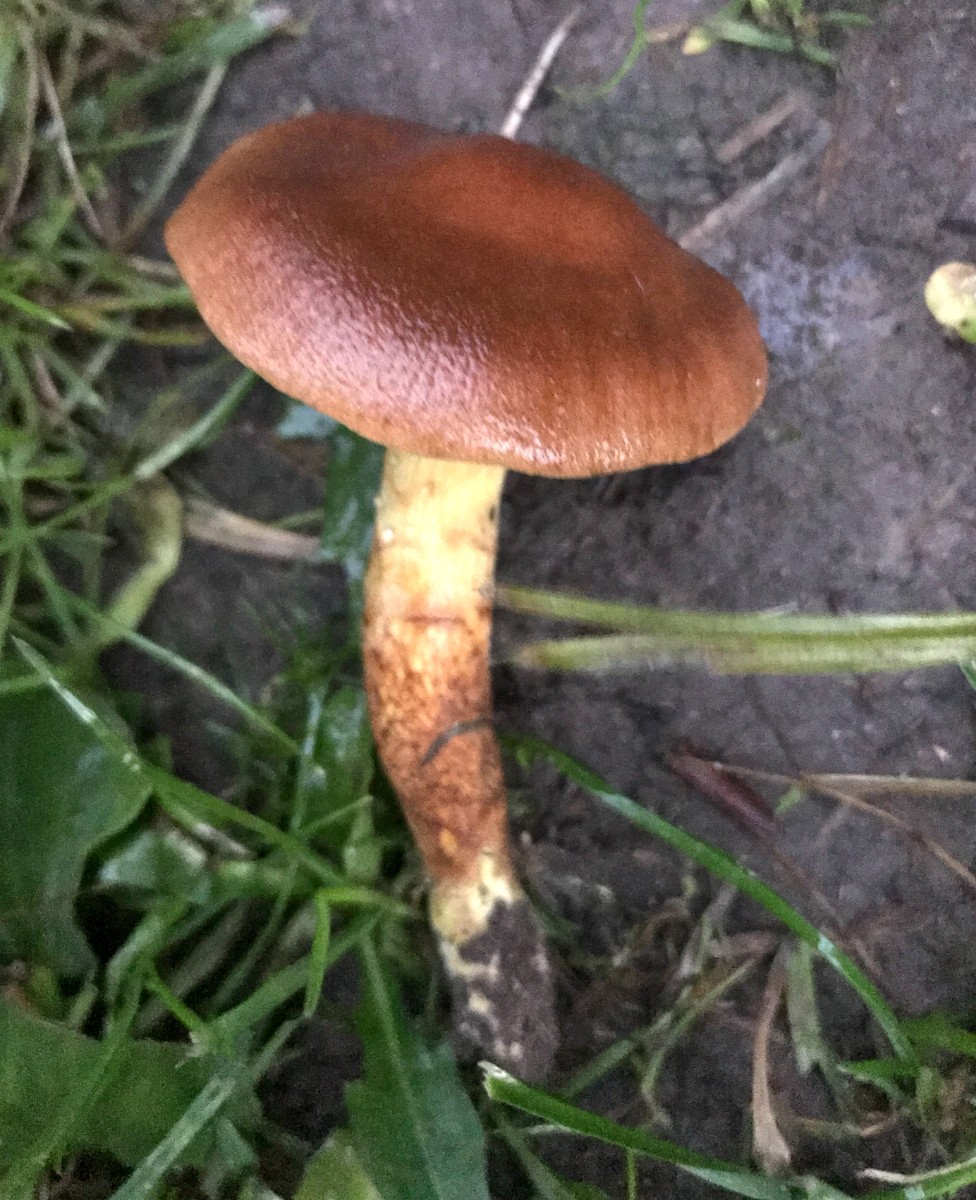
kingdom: Fungi
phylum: Basidiomycota
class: Agaricomycetes
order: Agaricales
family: Cortinariaceae
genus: Cortinarius
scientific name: Cortinarius
